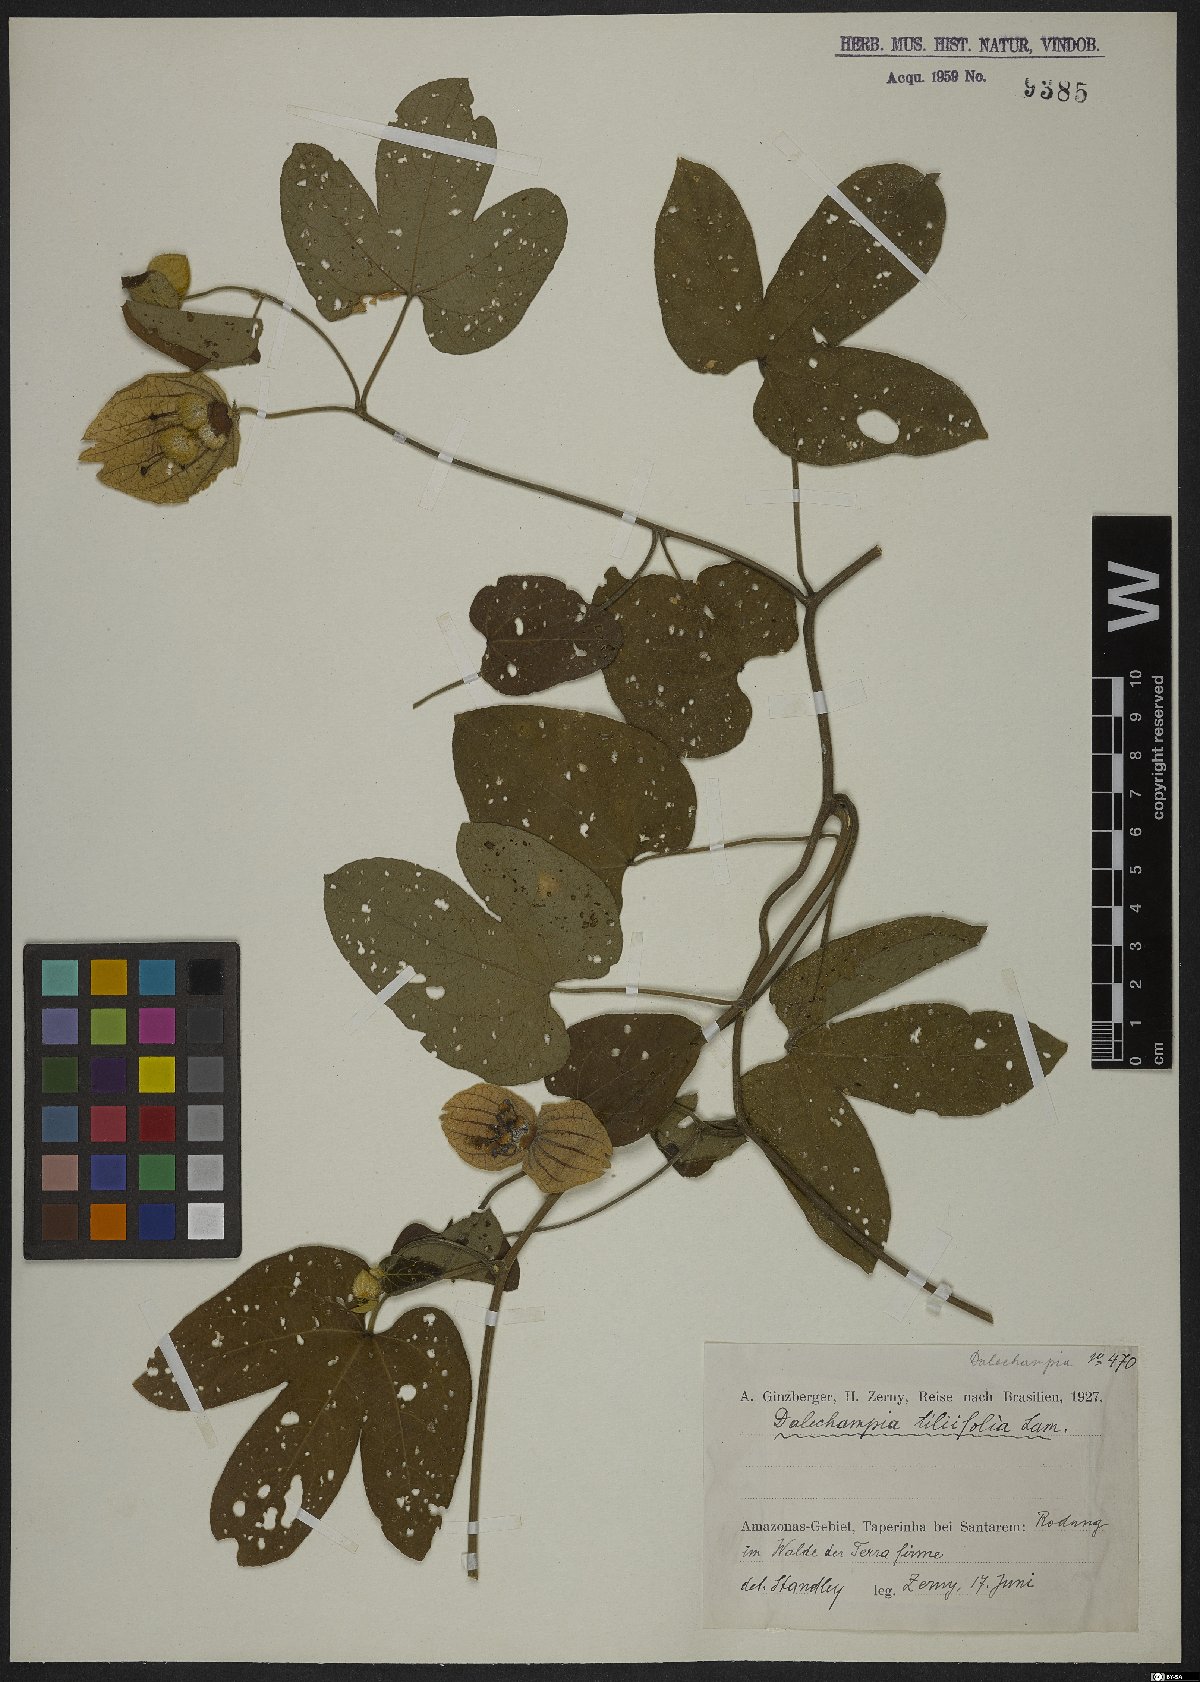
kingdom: Plantae
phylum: Tracheophyta
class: Magnoliopsida
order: Malpighiales
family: Euphorbiaceae
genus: Dalechampia
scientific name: Dalechampia tiliifolia
